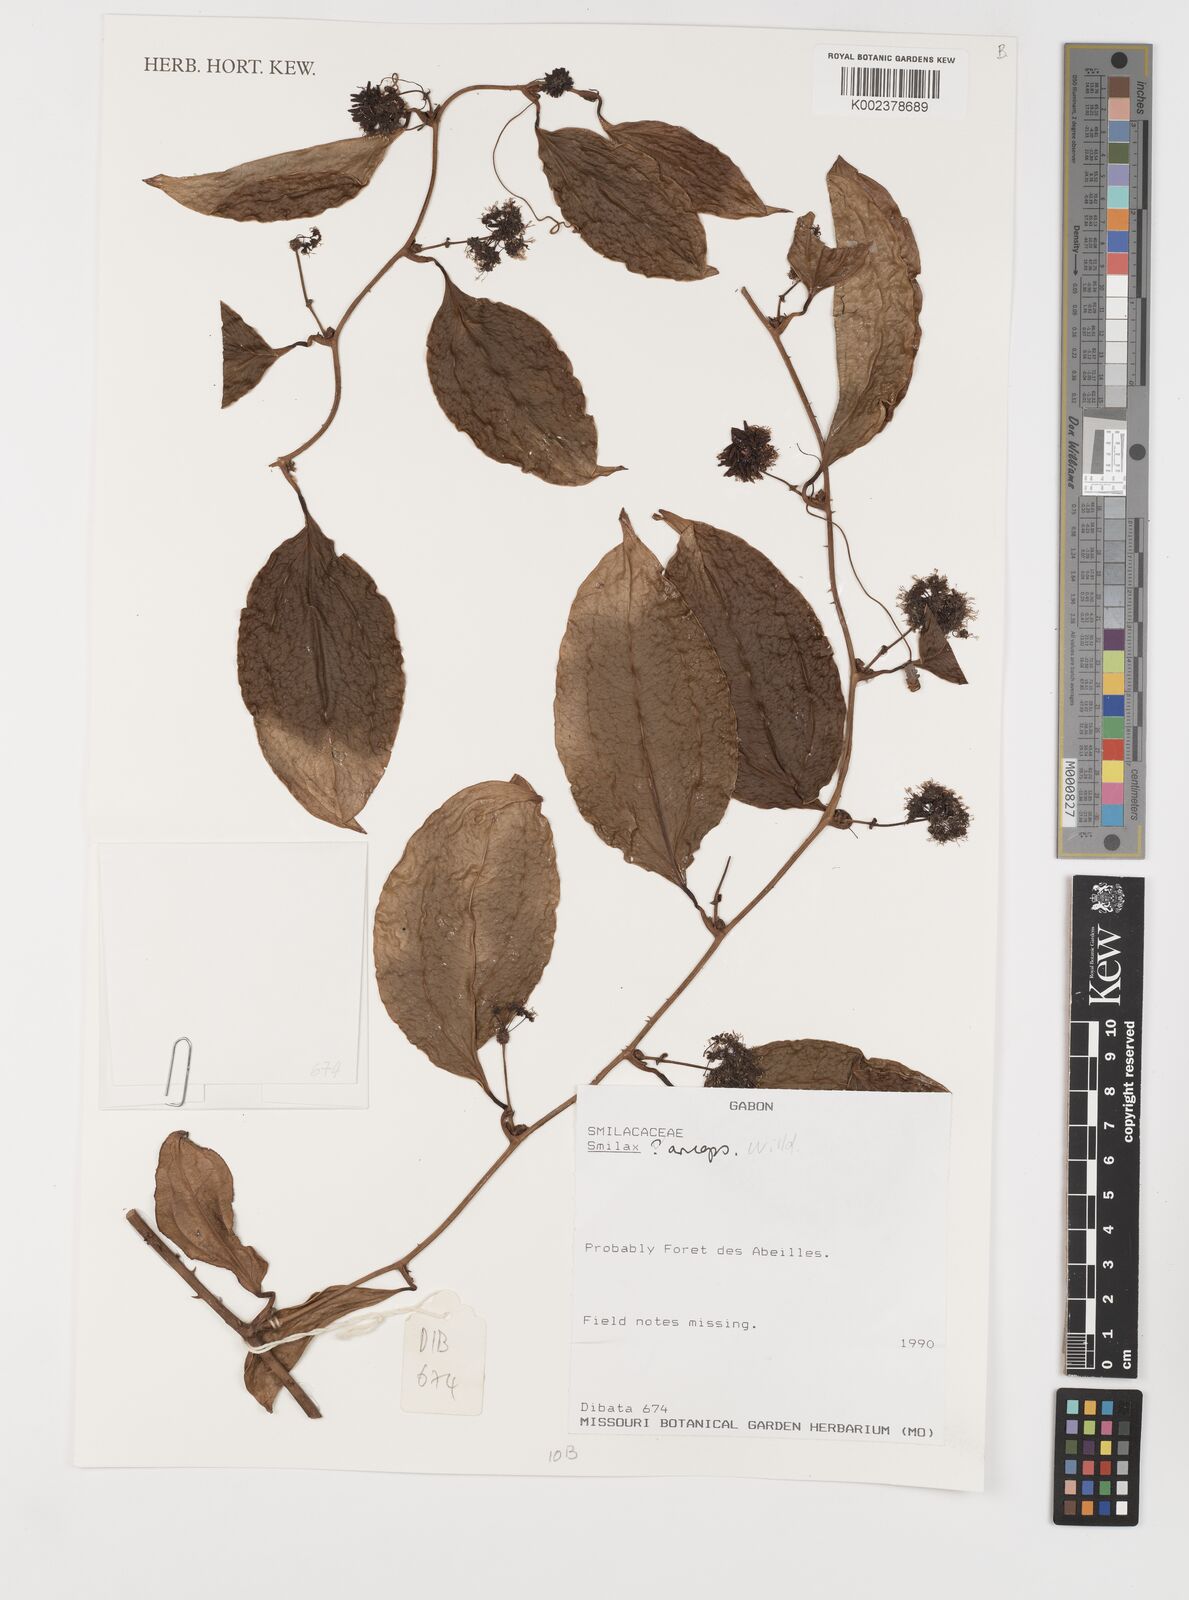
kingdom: Plantae
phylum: Tracheophyta
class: Liliopsida
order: Liliales
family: Smilacaceae
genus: Smilax
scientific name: Smilax anceps
